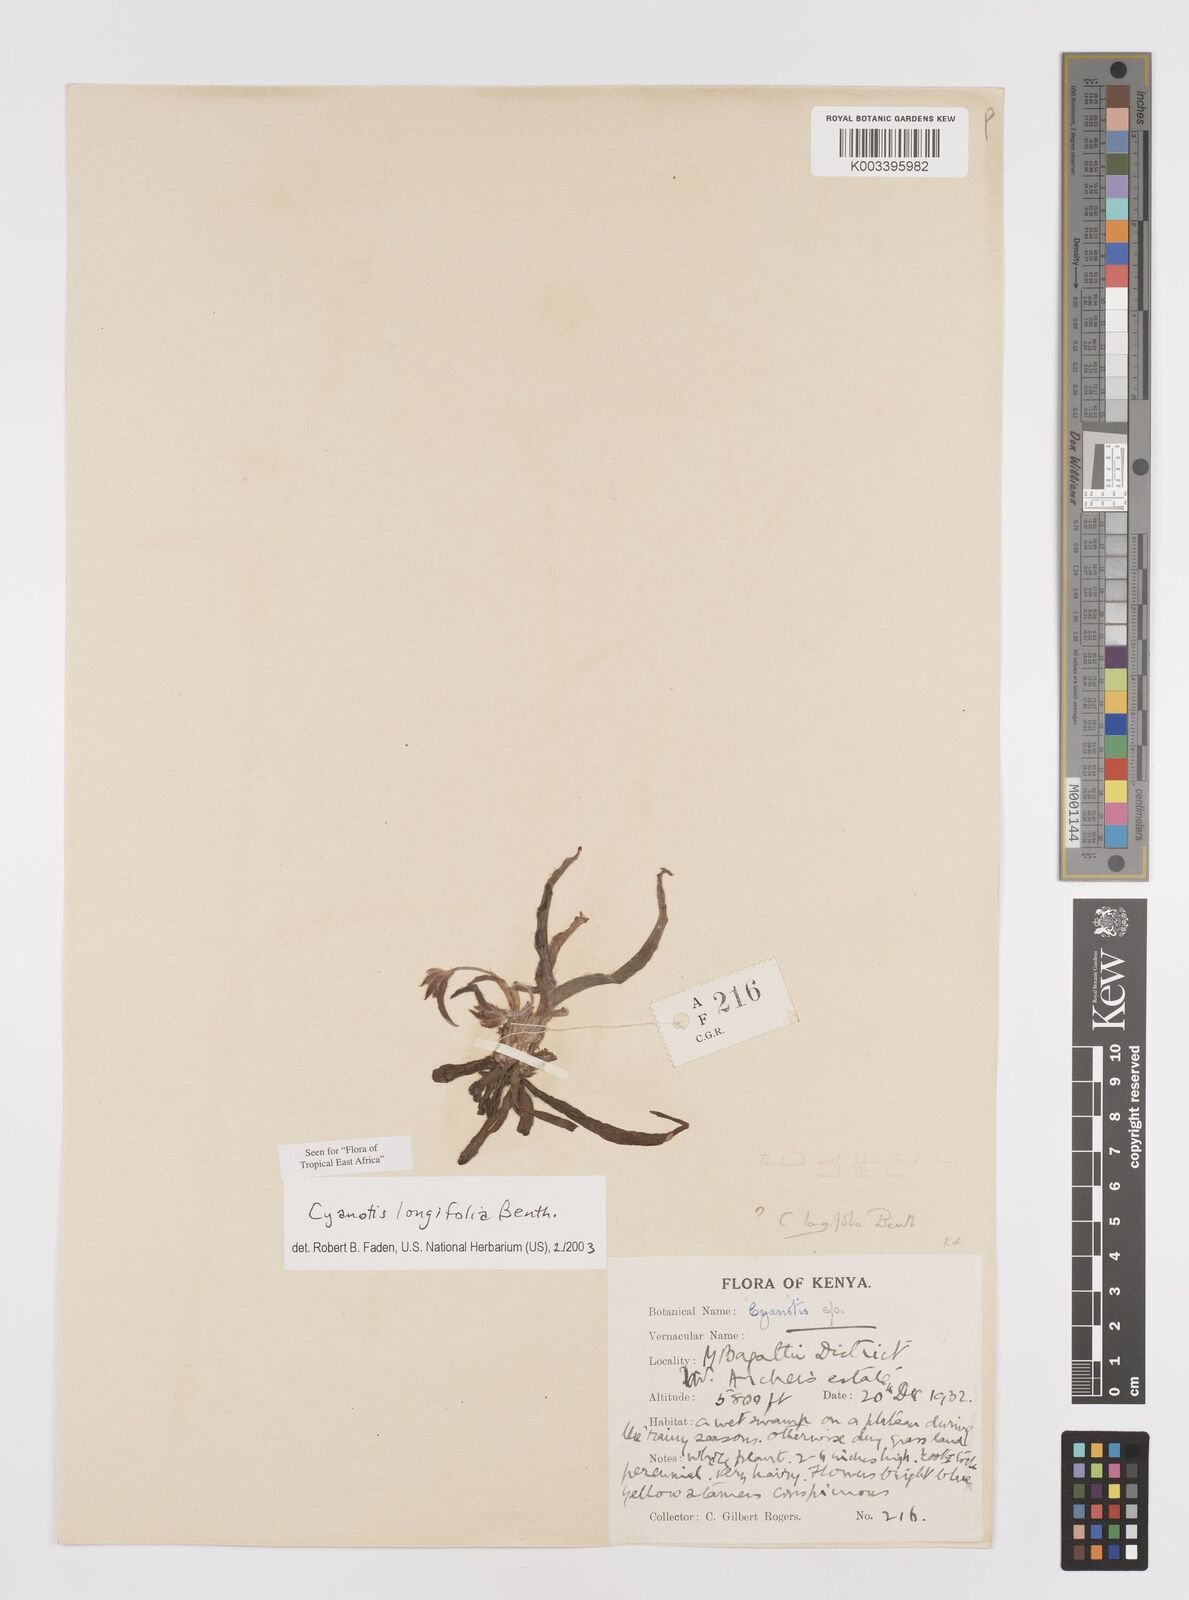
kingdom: Plantae
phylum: Tracheophyta
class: Liliopsida
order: Commelinales
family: Commelinaceae
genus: Cyanotis
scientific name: Cyanotis longifolia
